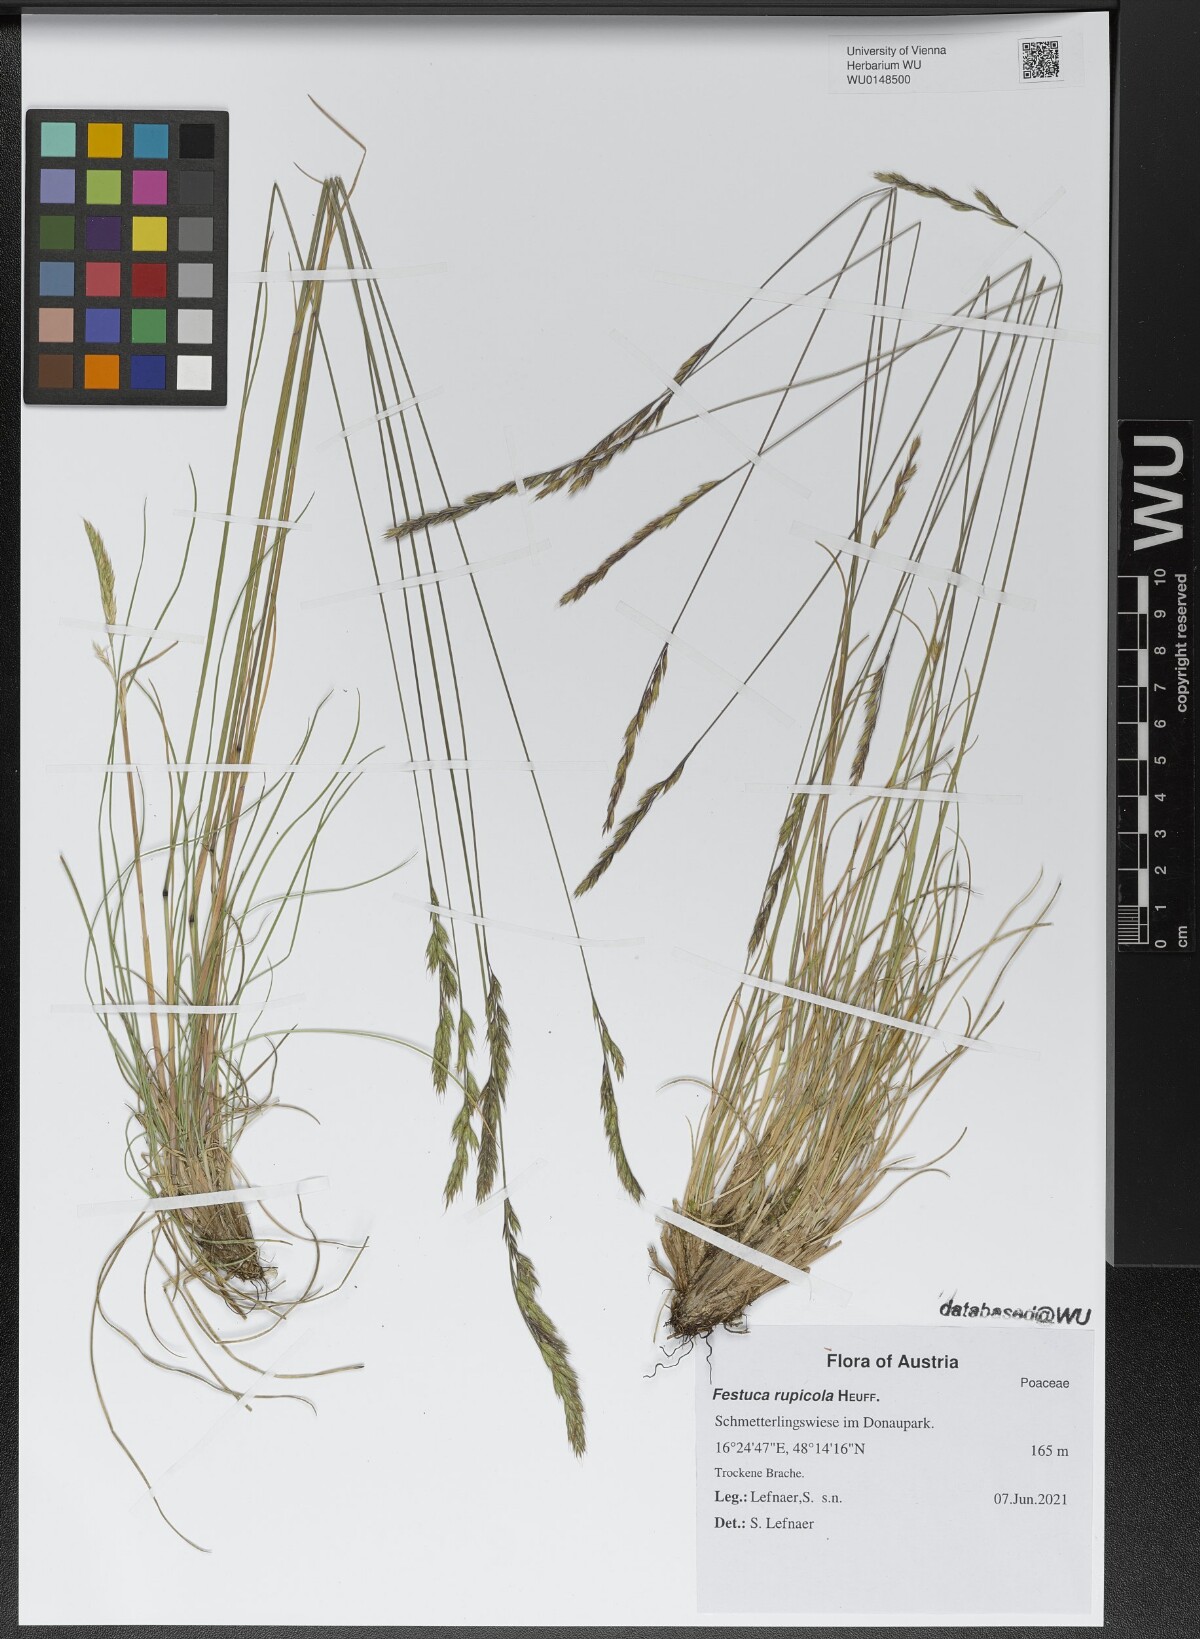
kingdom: Plantae
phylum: Tracheophyta
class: Liliopsida
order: Poales
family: Poaceae
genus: Festuca
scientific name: Festuca rupicola
